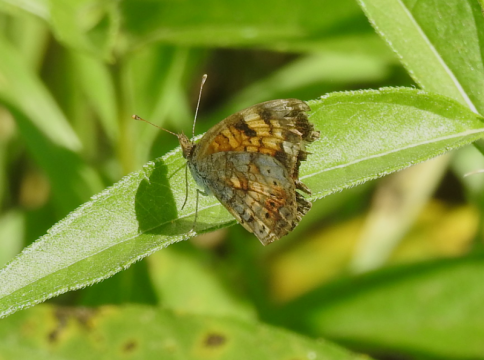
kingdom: Animalia
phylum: Arthropoda
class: Insecta
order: Lepidoptera
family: Nymphalidae
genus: Phyciodes
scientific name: Phyciodes tharos
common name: Northern Crescent
